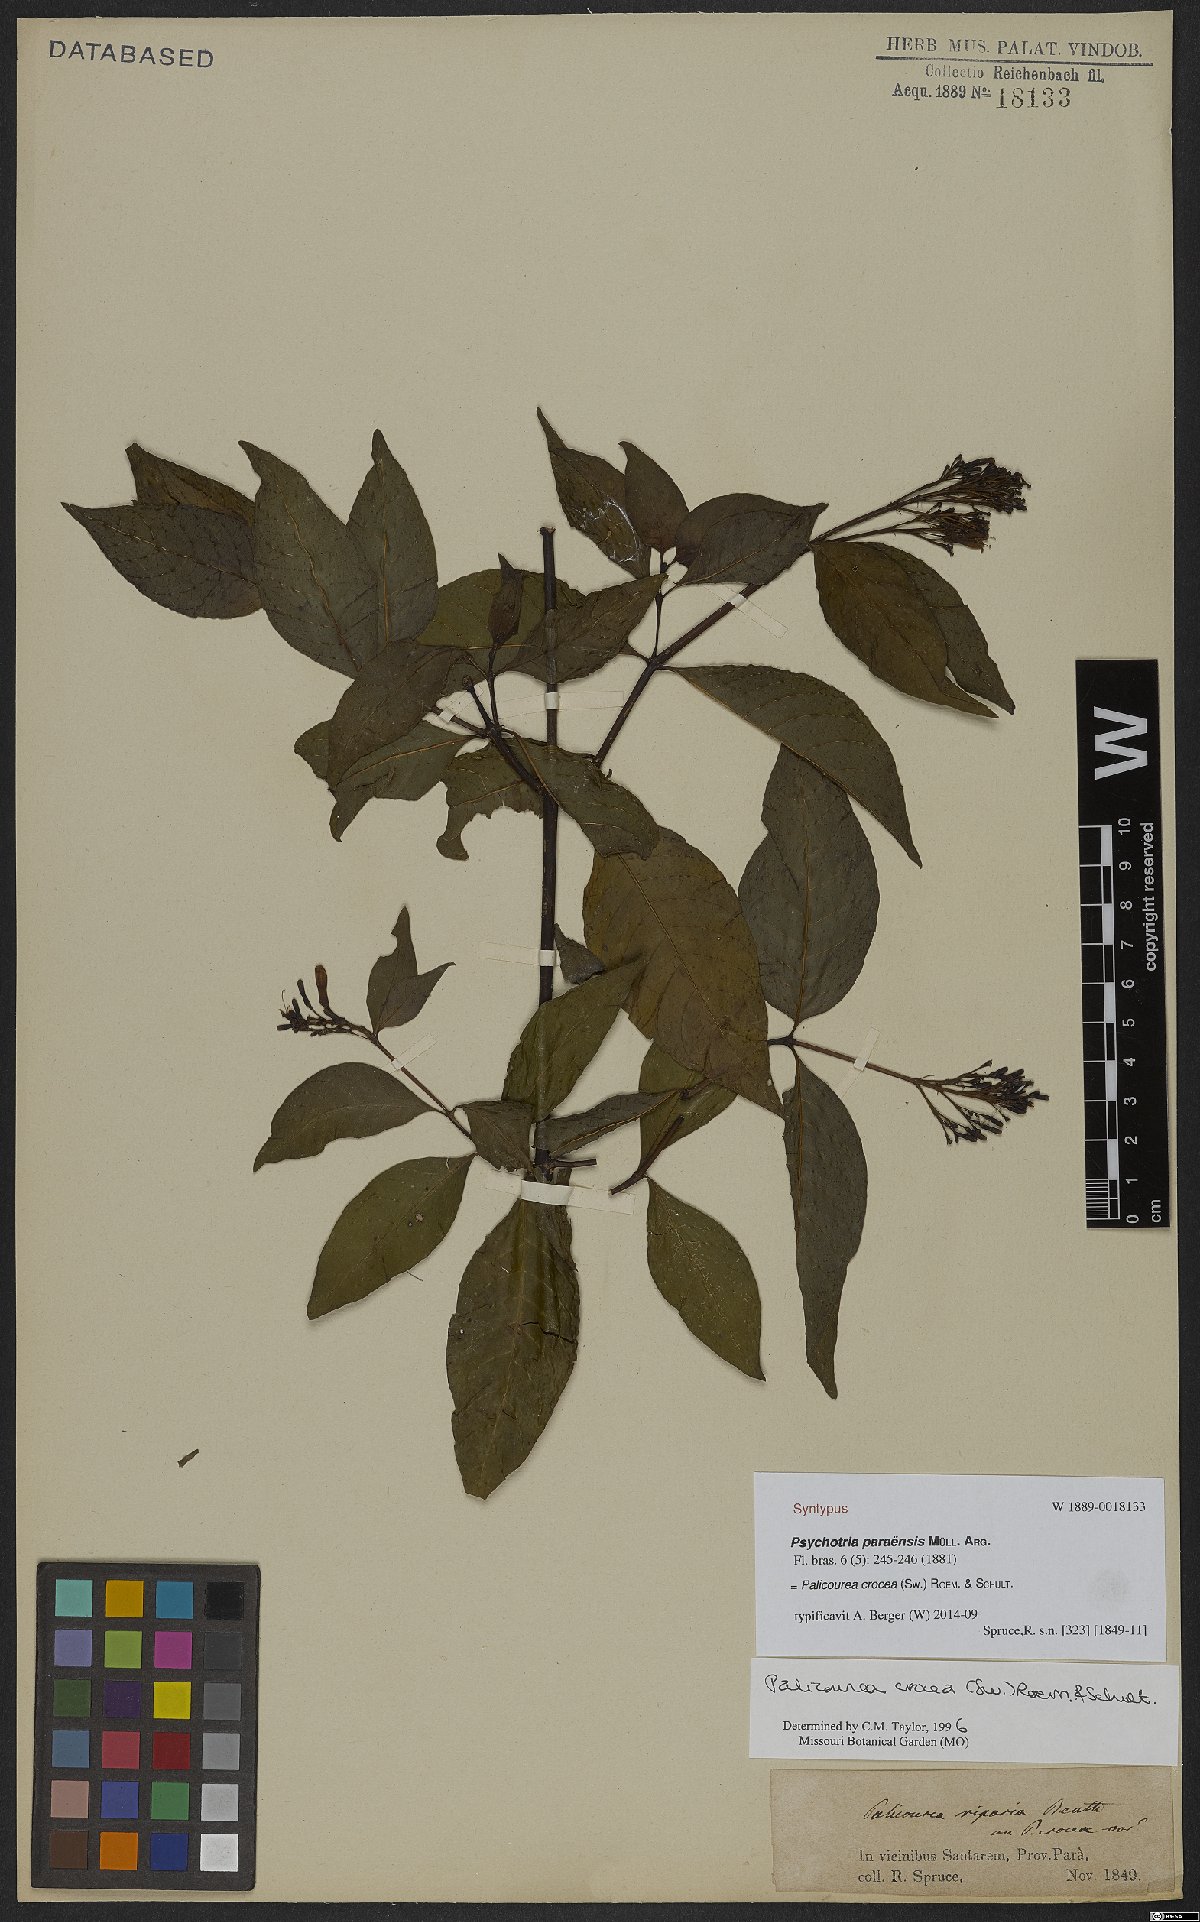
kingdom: Plantae
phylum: Tracheophyta
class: Magnoliopsida
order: Gentianales
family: Rubiaceae
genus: Palicourea
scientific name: Palicourea crocea
